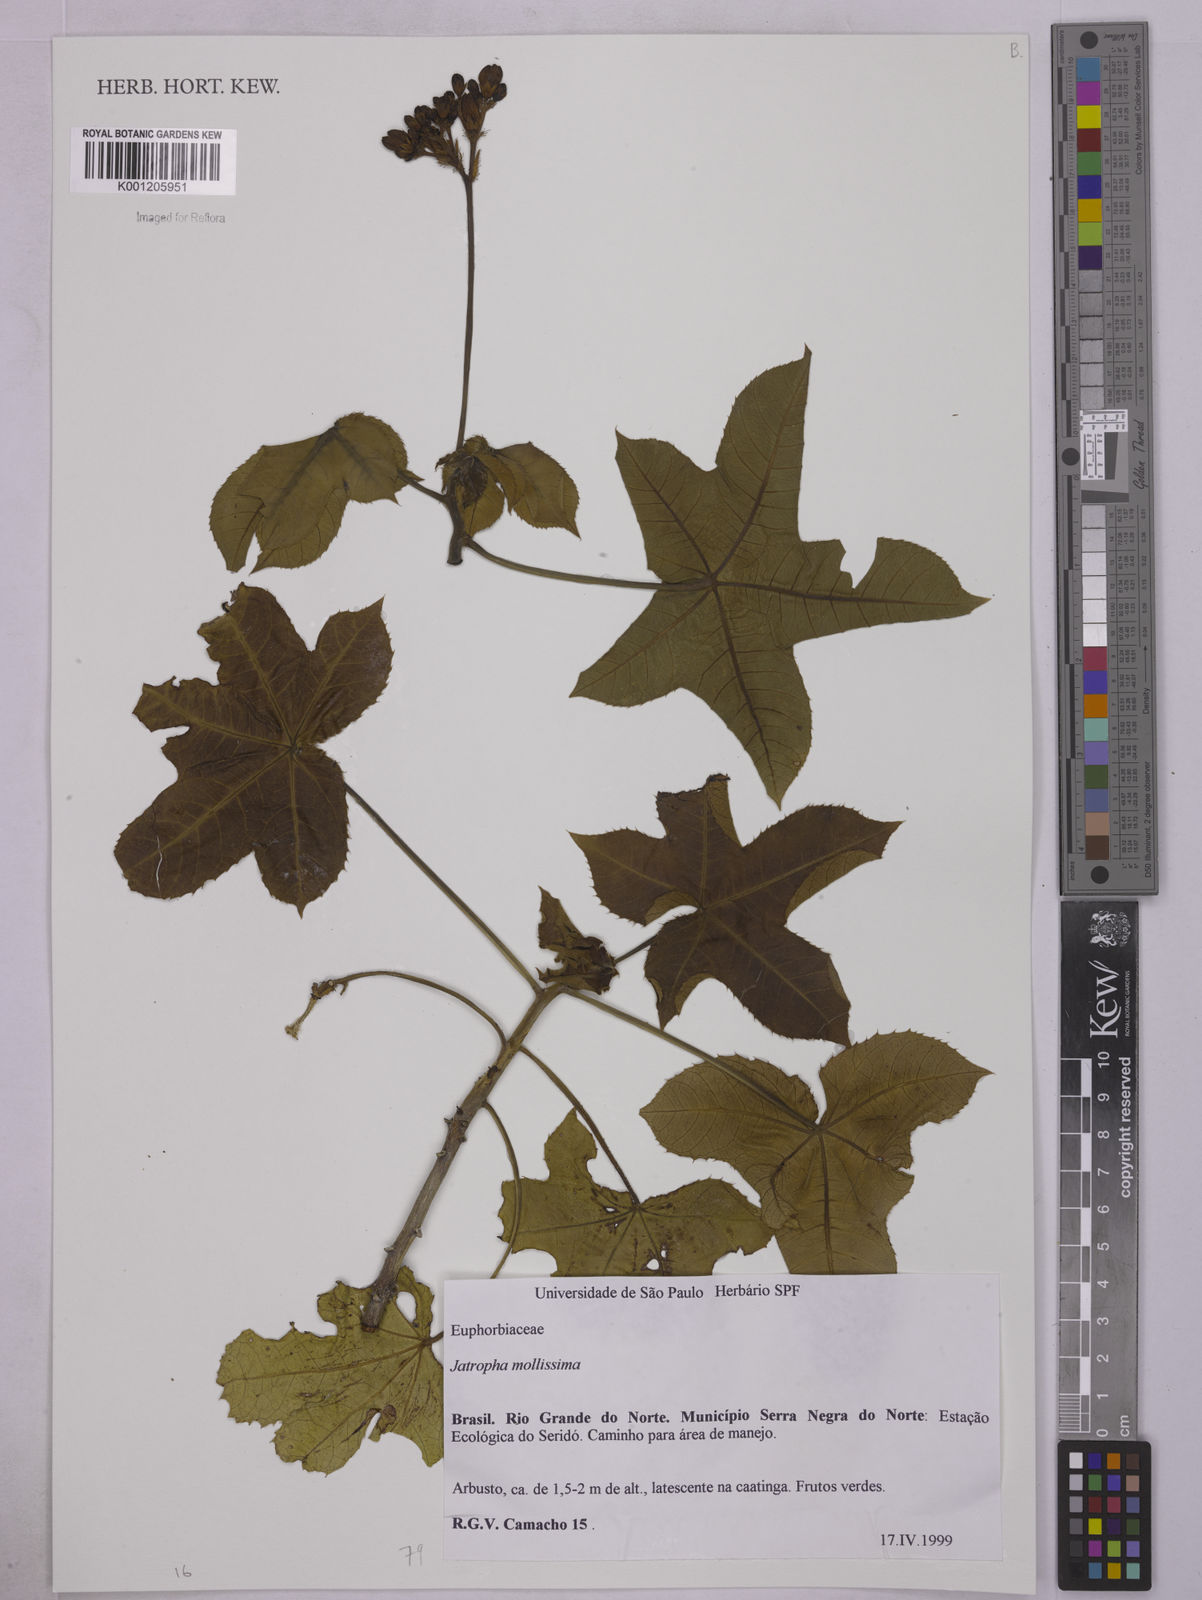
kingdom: Plantae
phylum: Tracheophyta
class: Magnoliopsida
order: Malpighiales
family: Euphorbiaceae
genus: Jatropha
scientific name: Jatropha mollissima
